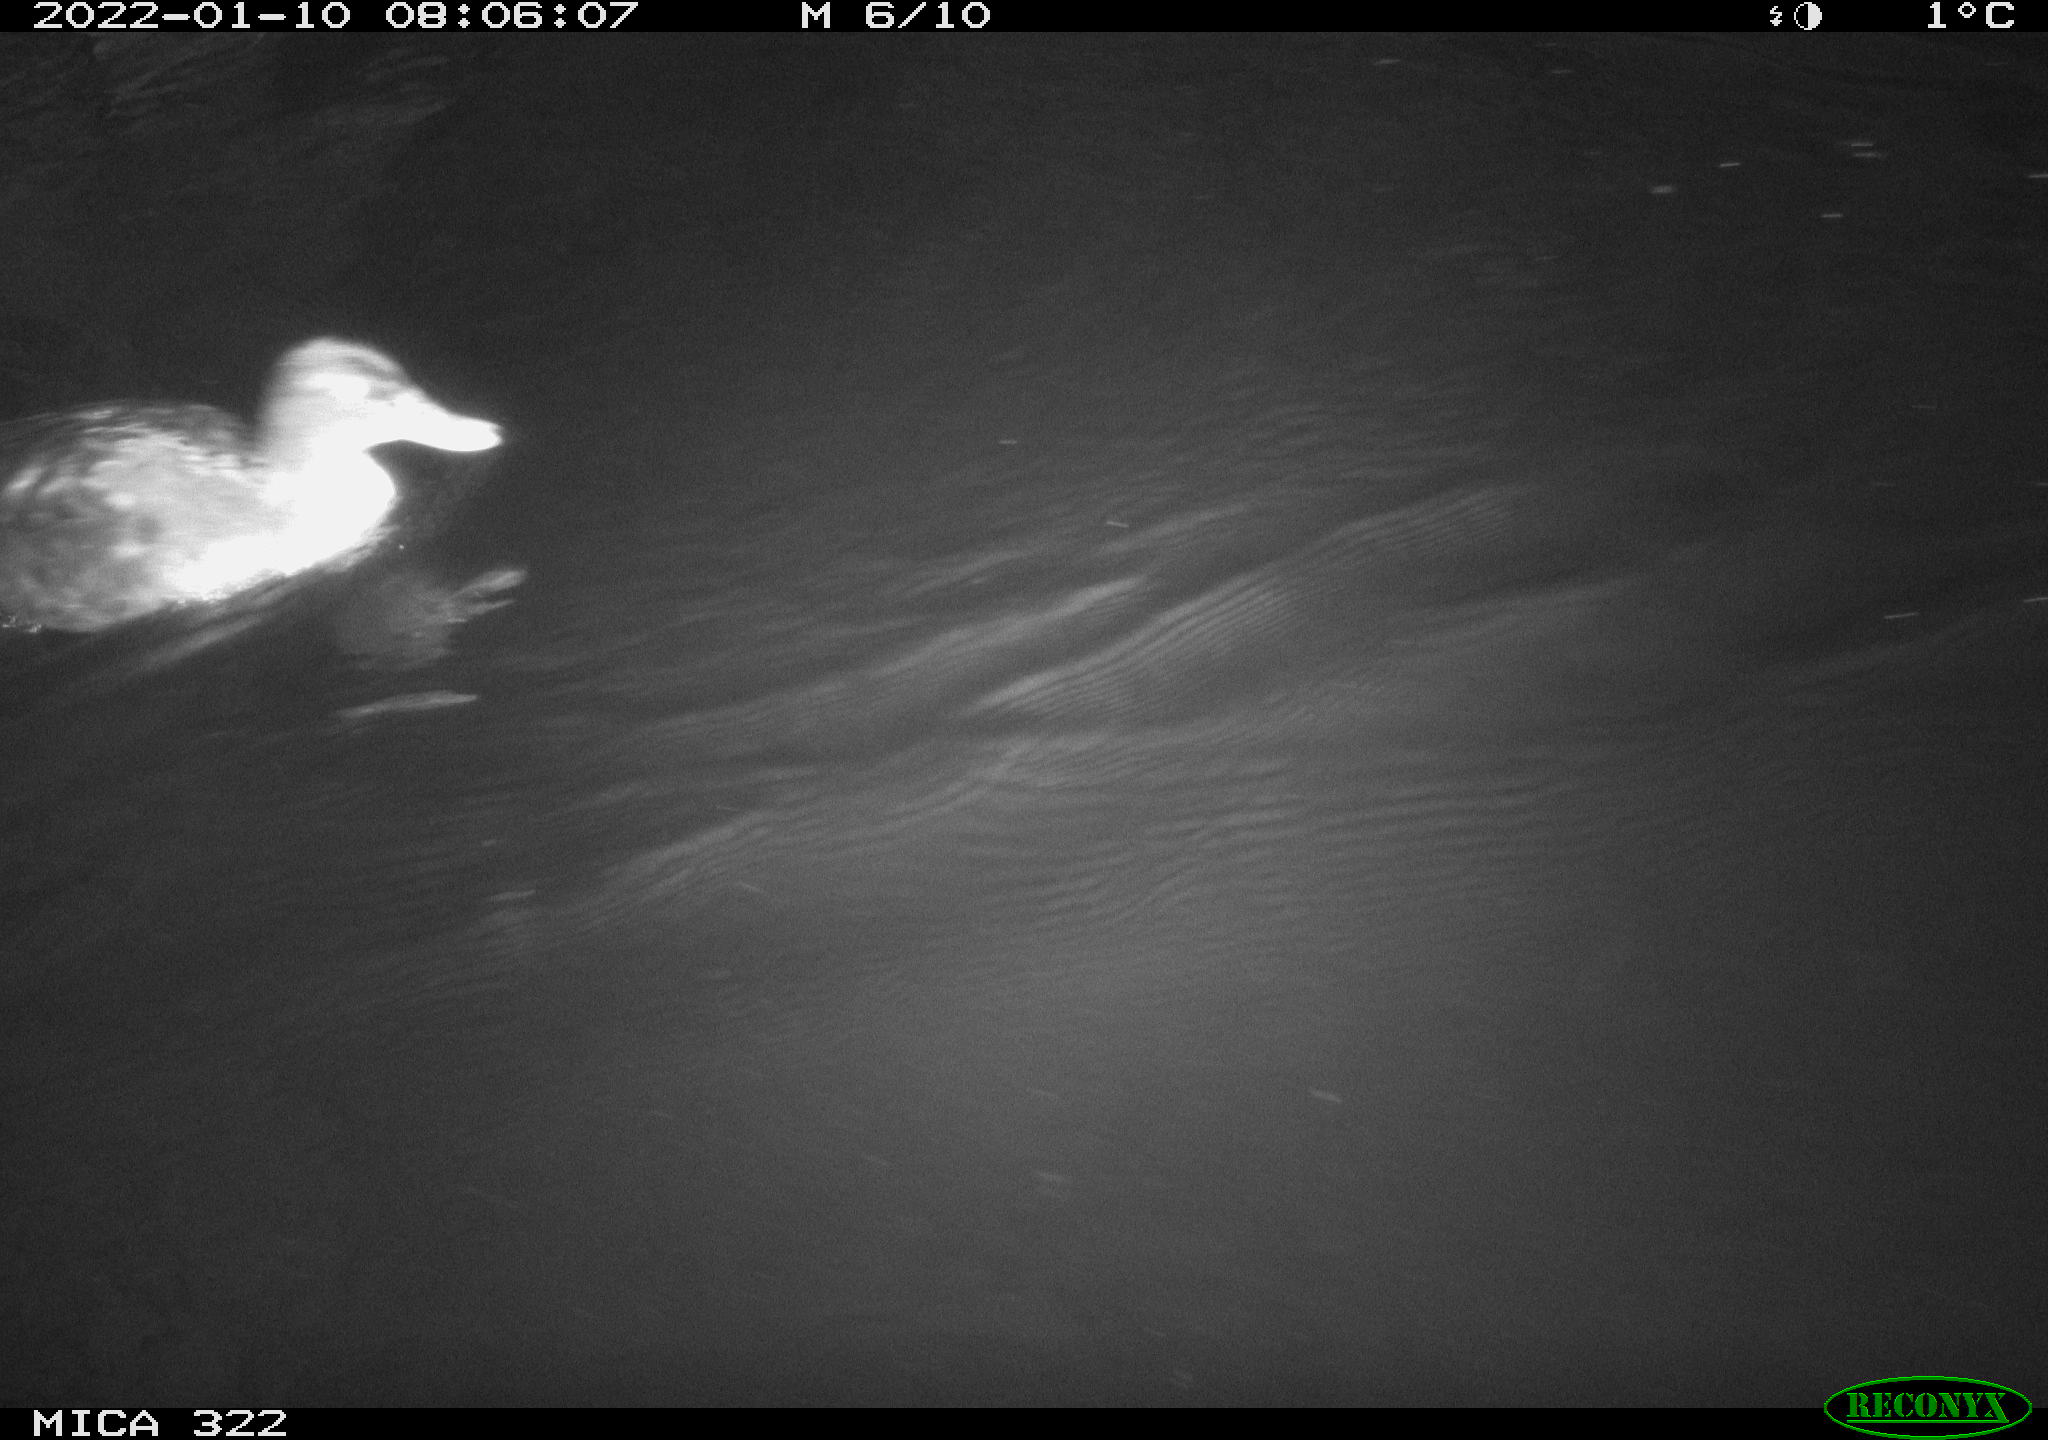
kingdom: Animalia
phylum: Chordata
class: Aves
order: Anseriformes
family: Anatidae
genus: Anas
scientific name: Anas
